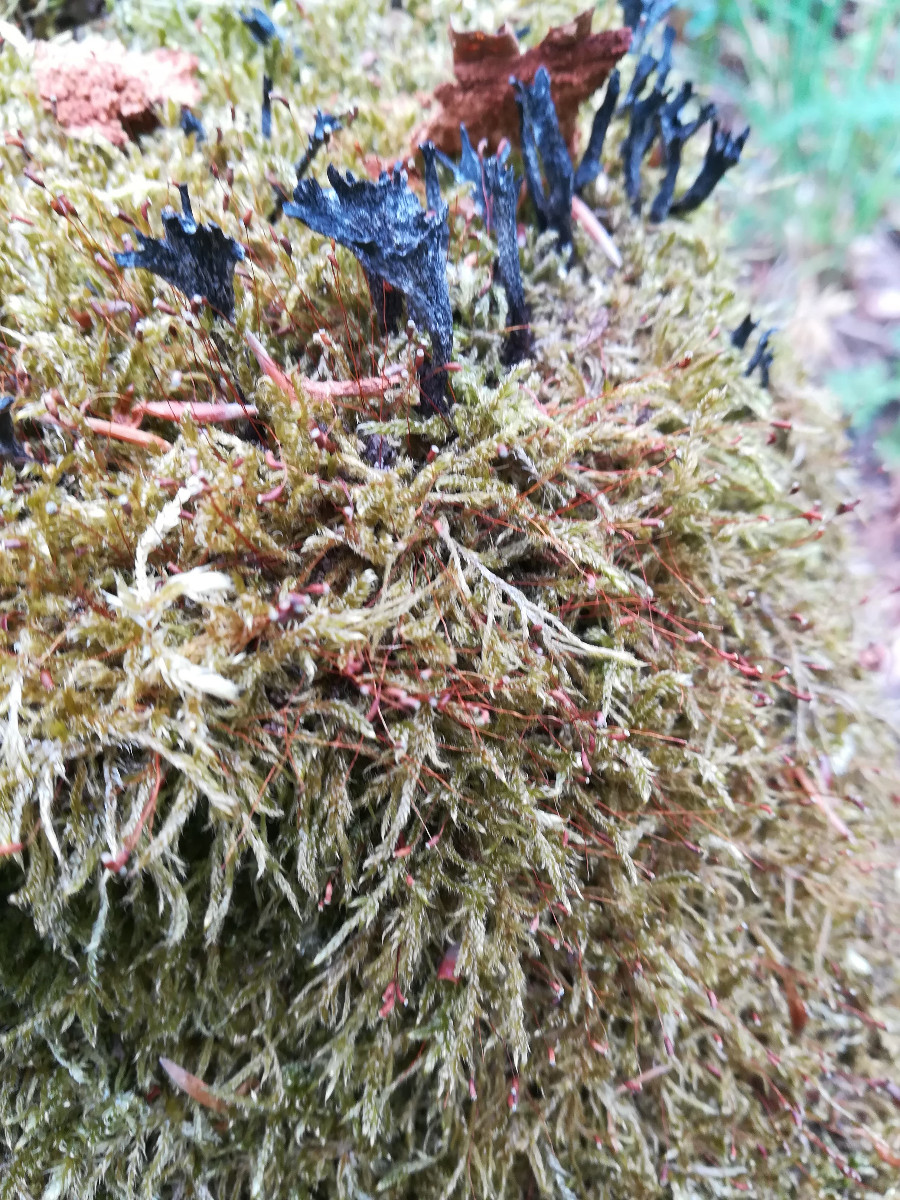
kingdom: Fungi
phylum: Ascomycota
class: Sordariomycetes
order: Xylariales
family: Xylariaceae
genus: Xylaria
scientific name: Xylaria hypoxylon
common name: grenet stødsvamp
